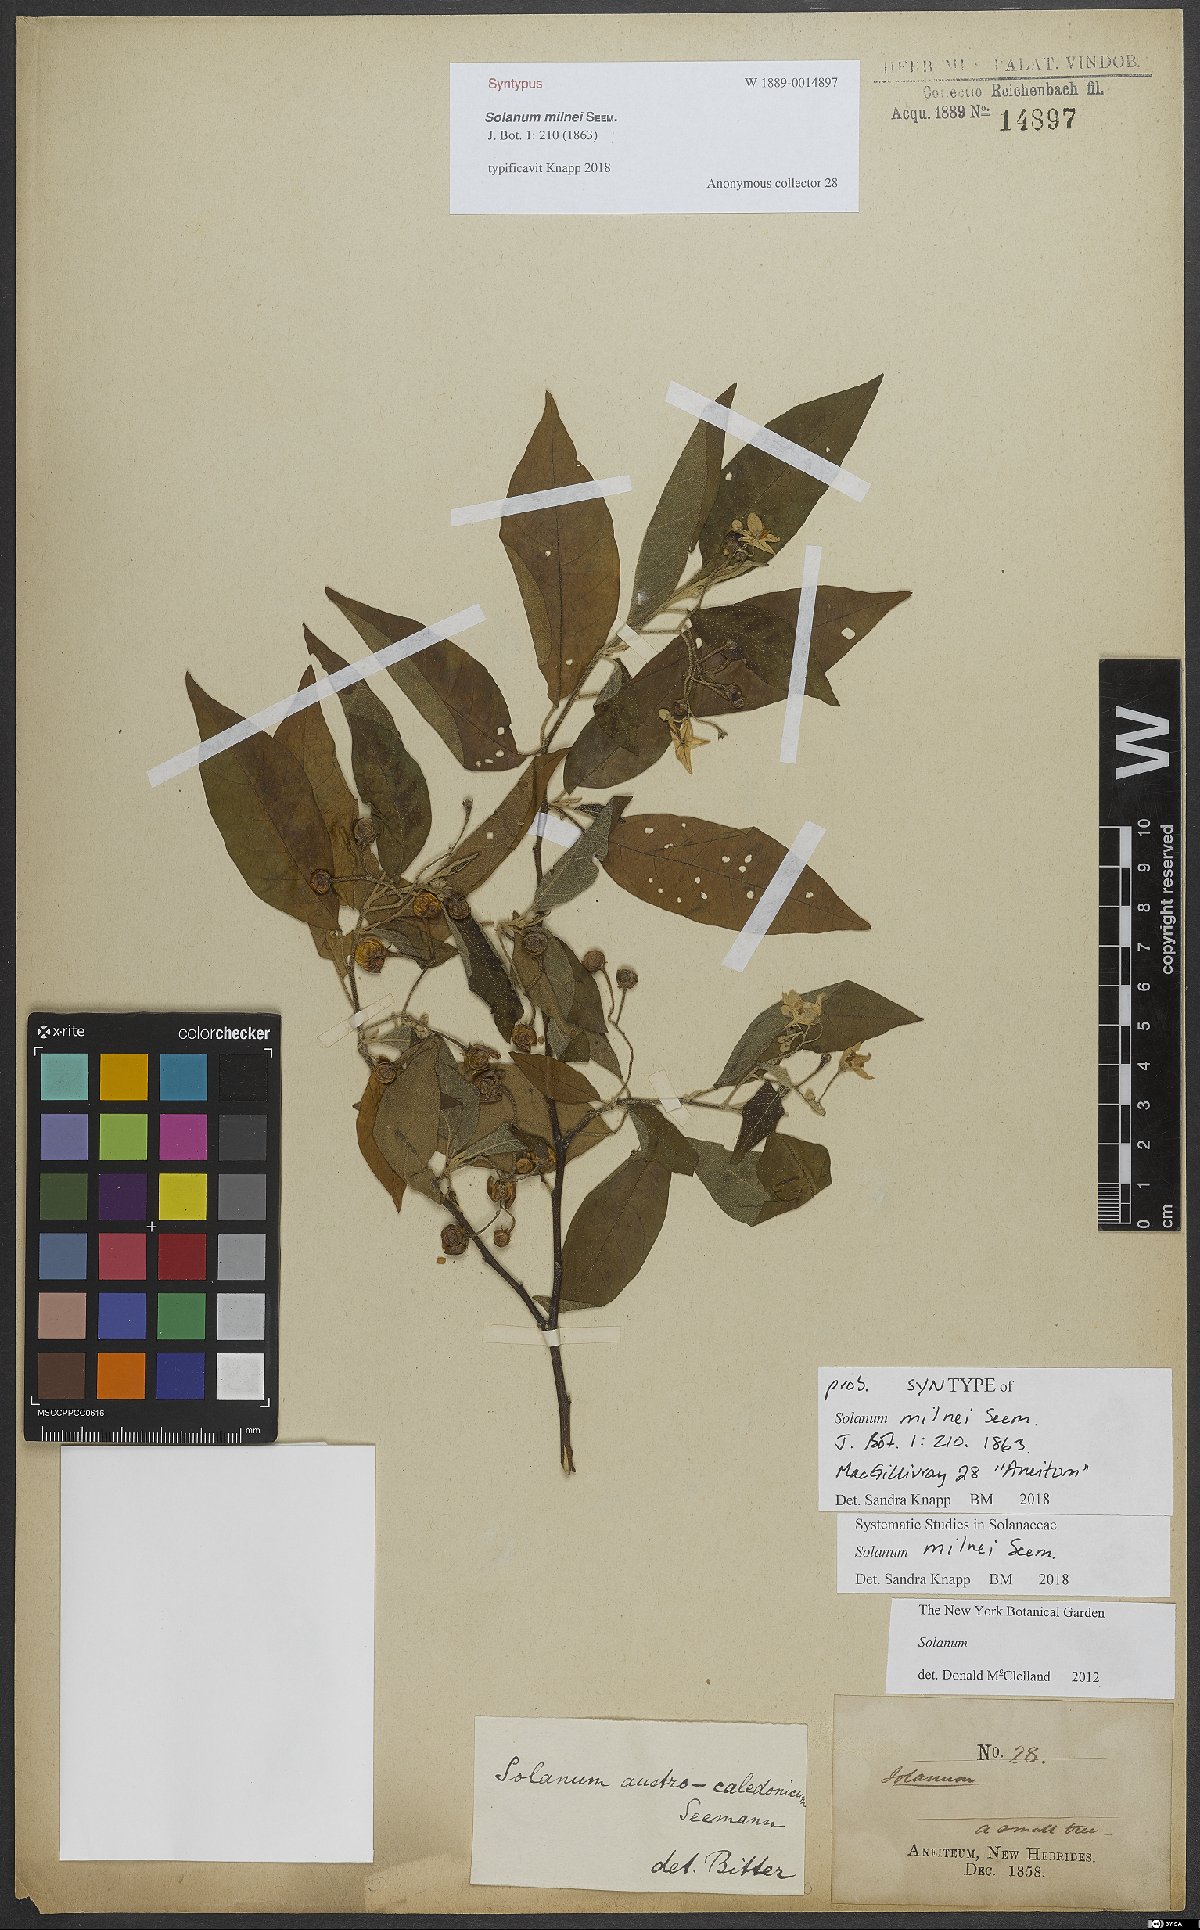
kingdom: Plantae
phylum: Tracheophyta
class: Magnoliopsida
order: Solanales
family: Solanaceae
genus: Solanum
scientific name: Solanum milnei
